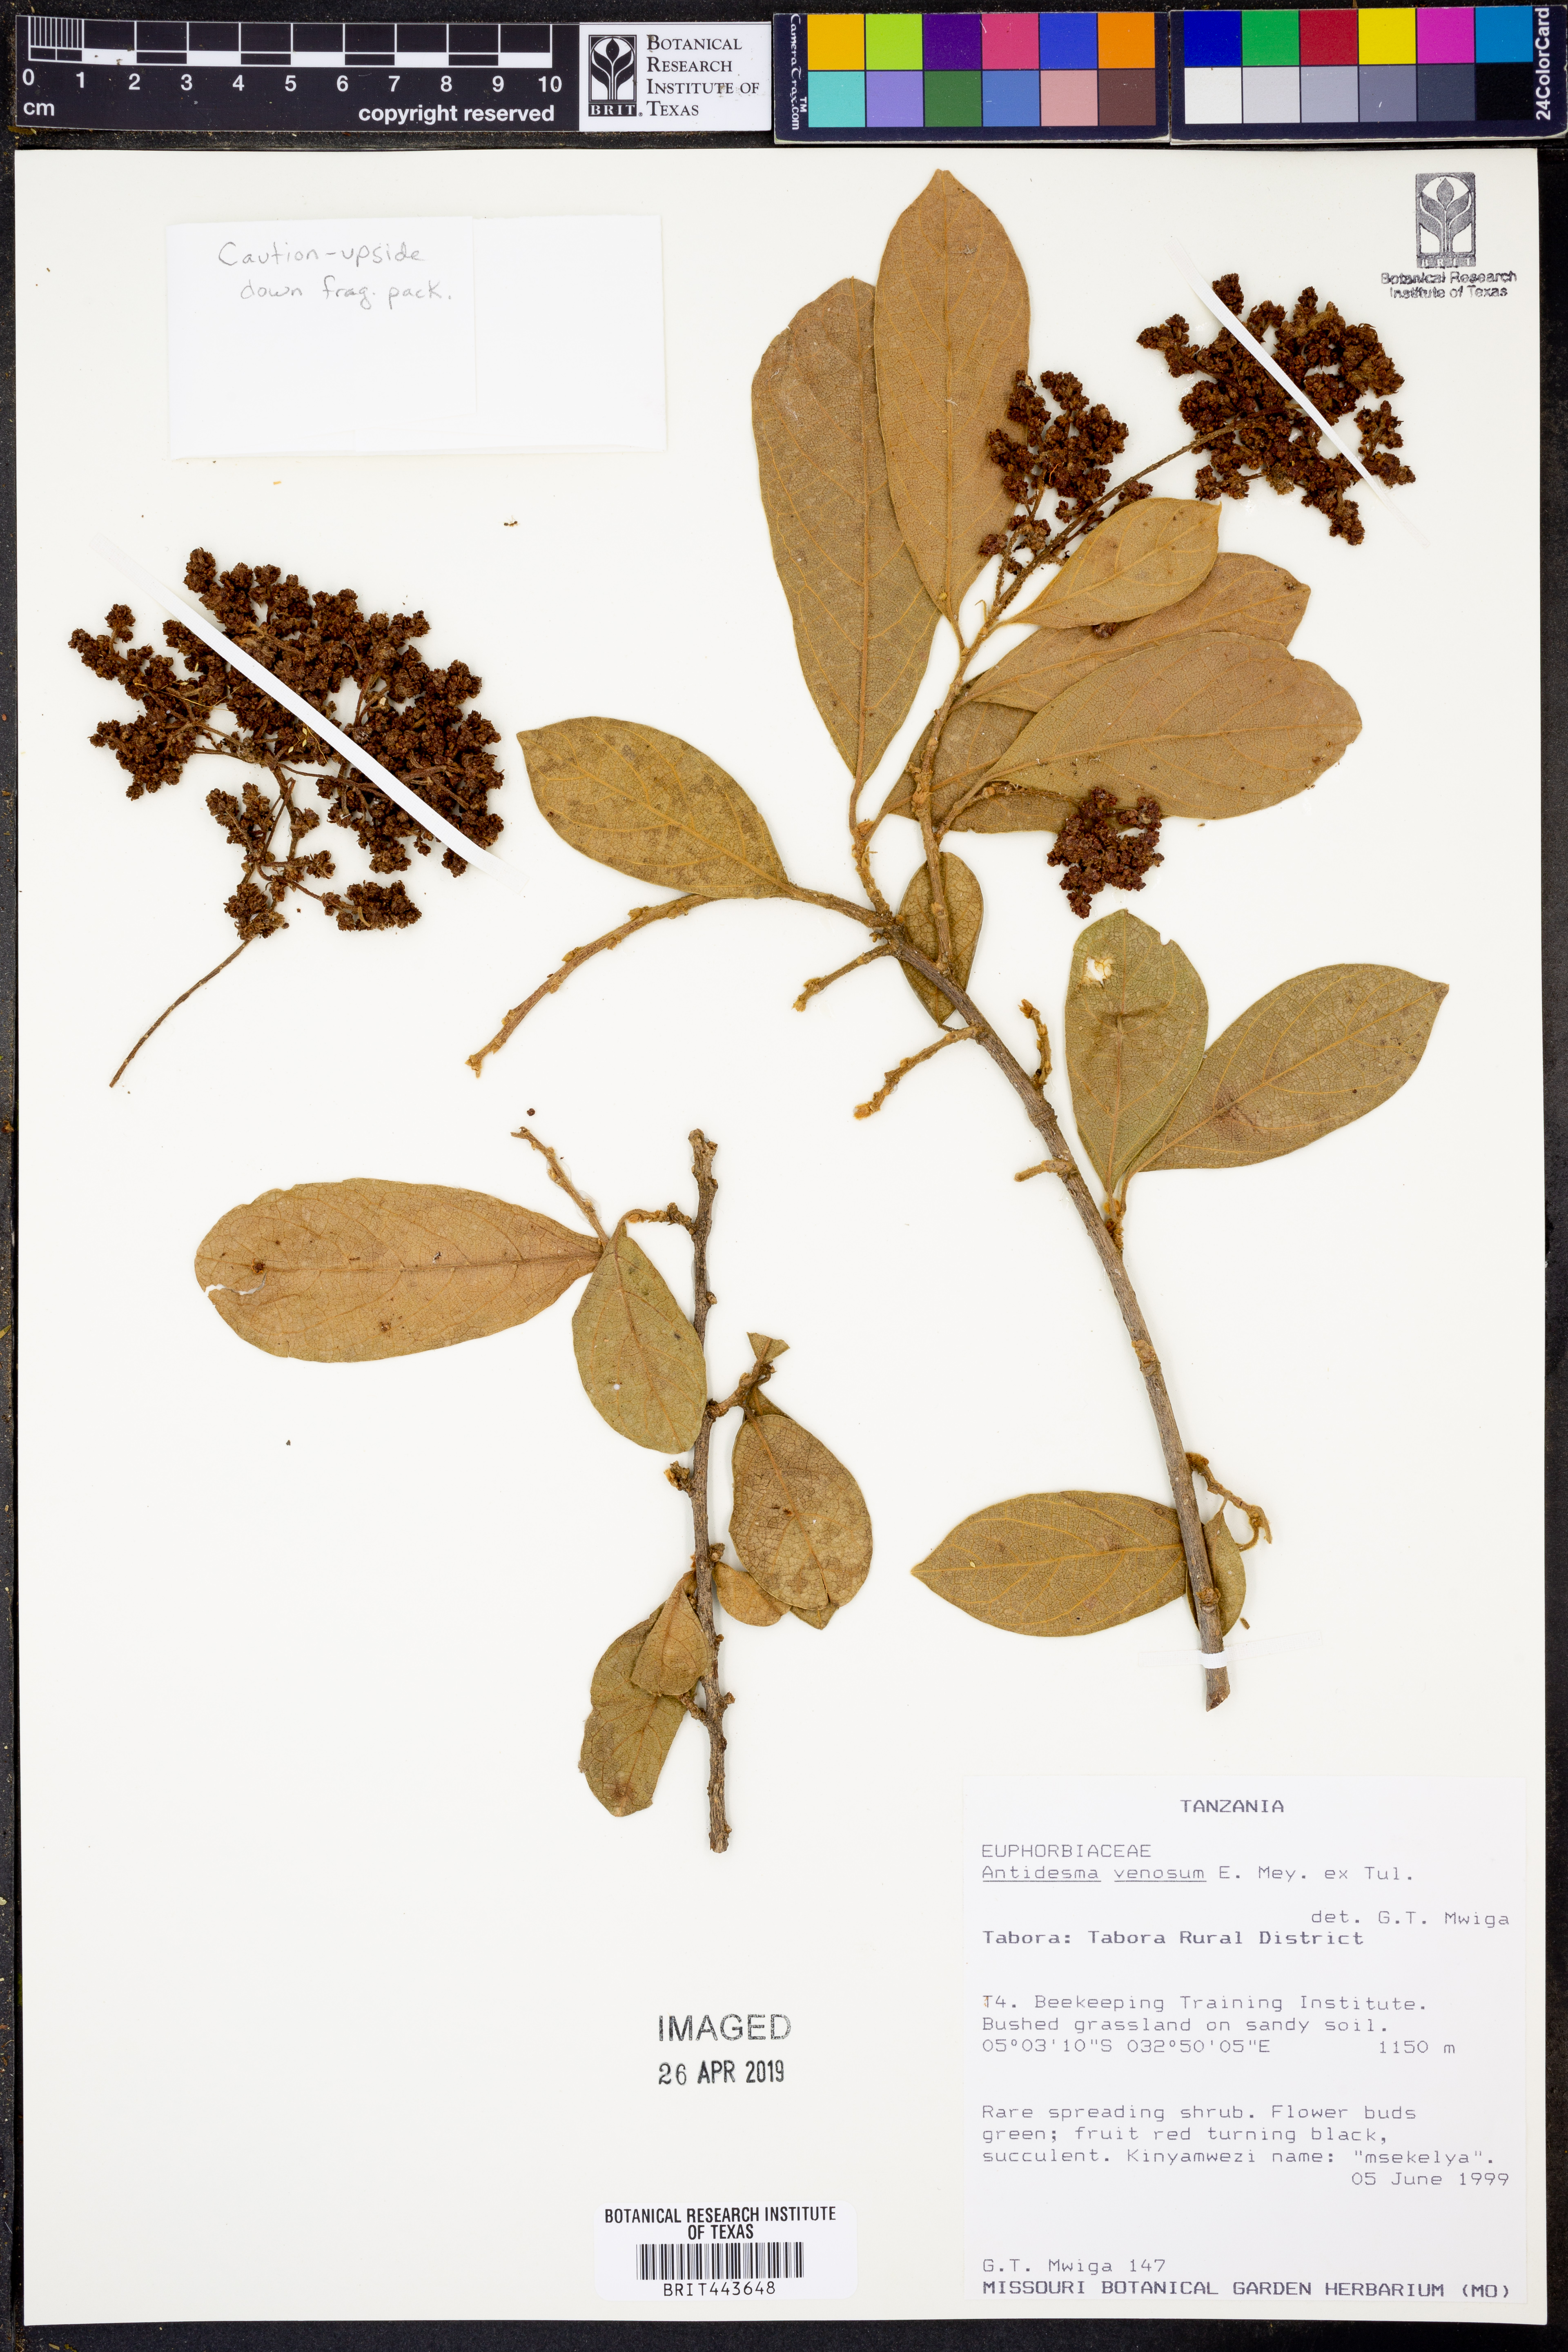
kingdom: Plantae
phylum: Tracheophyta
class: Magnoliopsida
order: Malpighiales
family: Phyllanthaceae
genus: Antidesma
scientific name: Antidesma venosum
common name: Tassel-berry
